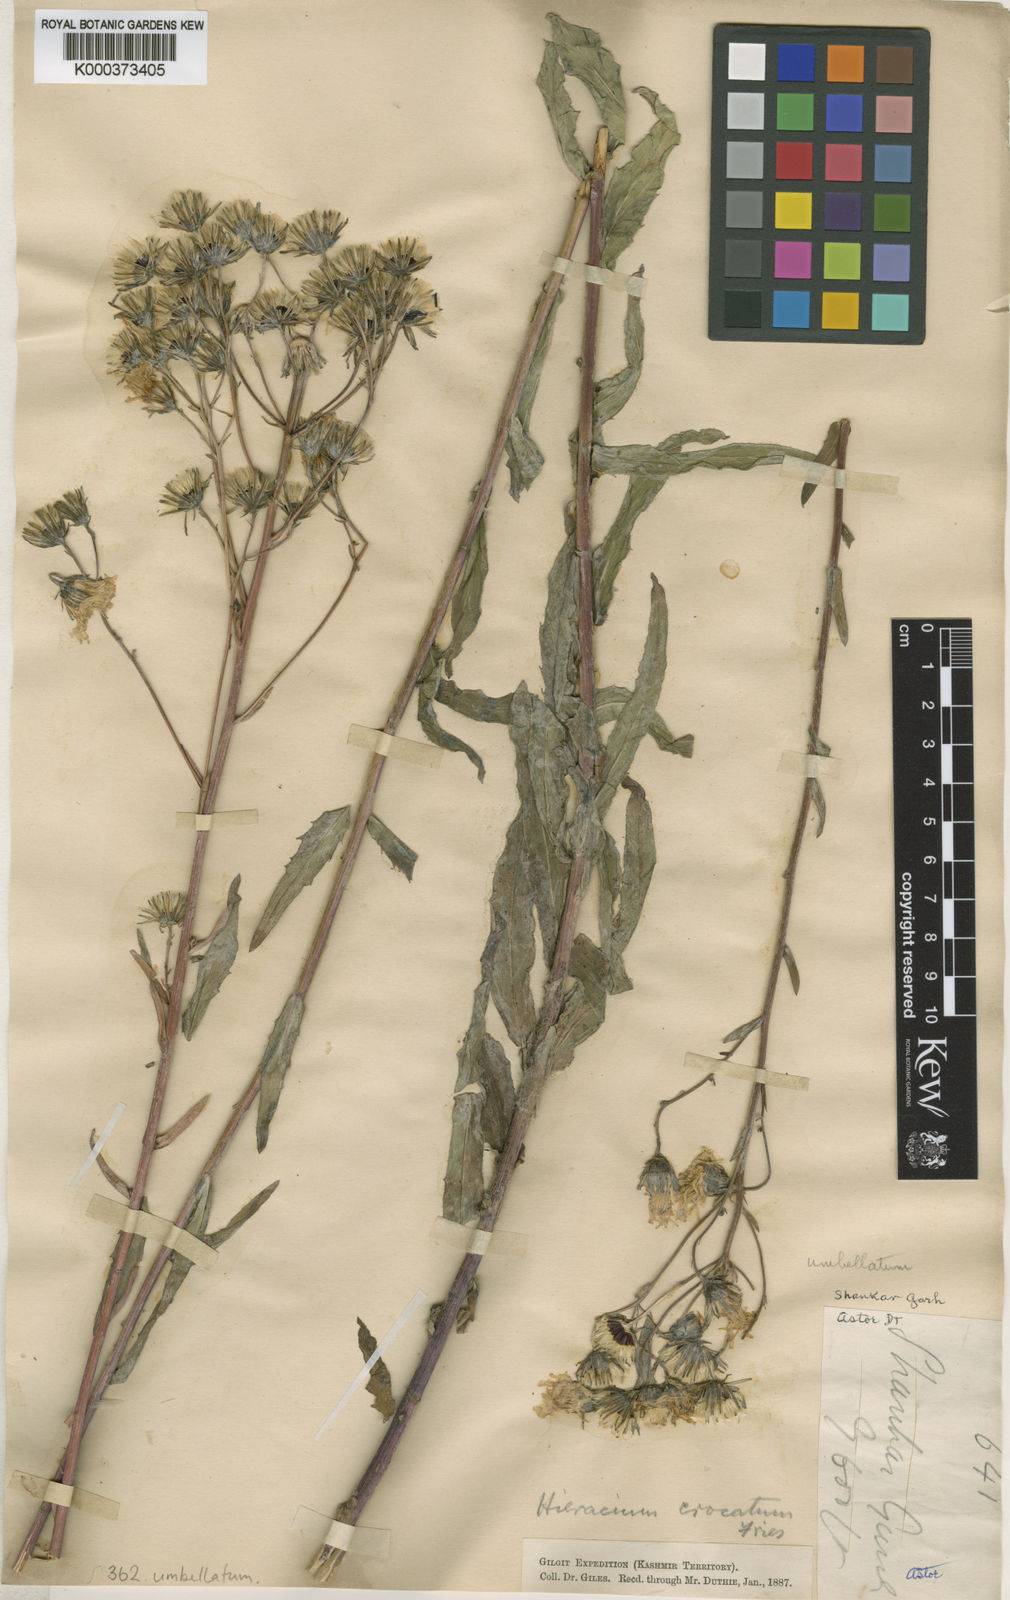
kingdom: Plantae
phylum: Tracheophyta
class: Magnoliopsida
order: Asterales
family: Asteraceae
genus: Hieracium
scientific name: Hieracium umbellatum
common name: Northern hawkweed
